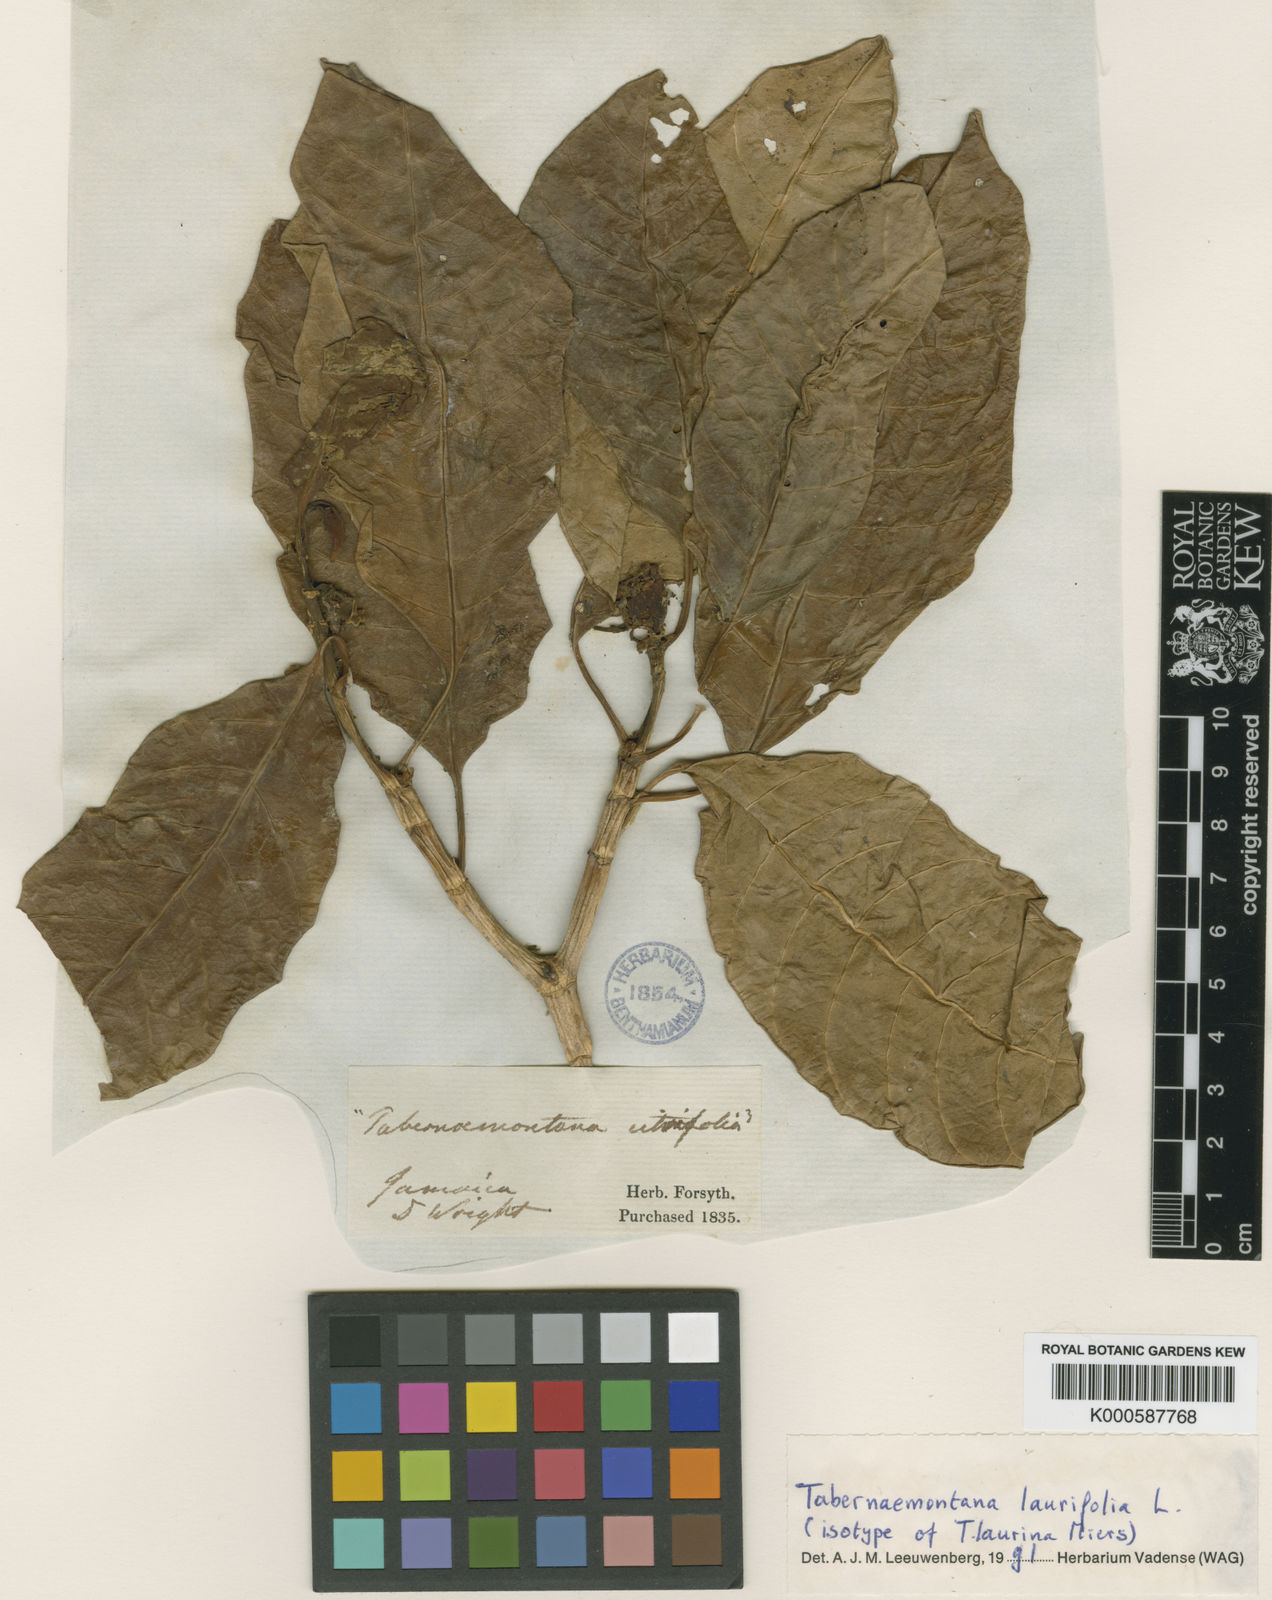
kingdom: Plantae
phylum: Tracheophyta
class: Magnoliopsida
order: Gentianales
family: Apocynaceae
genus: Tabernaemontana
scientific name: Tabernaemontana laurifolia
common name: Slingshot
